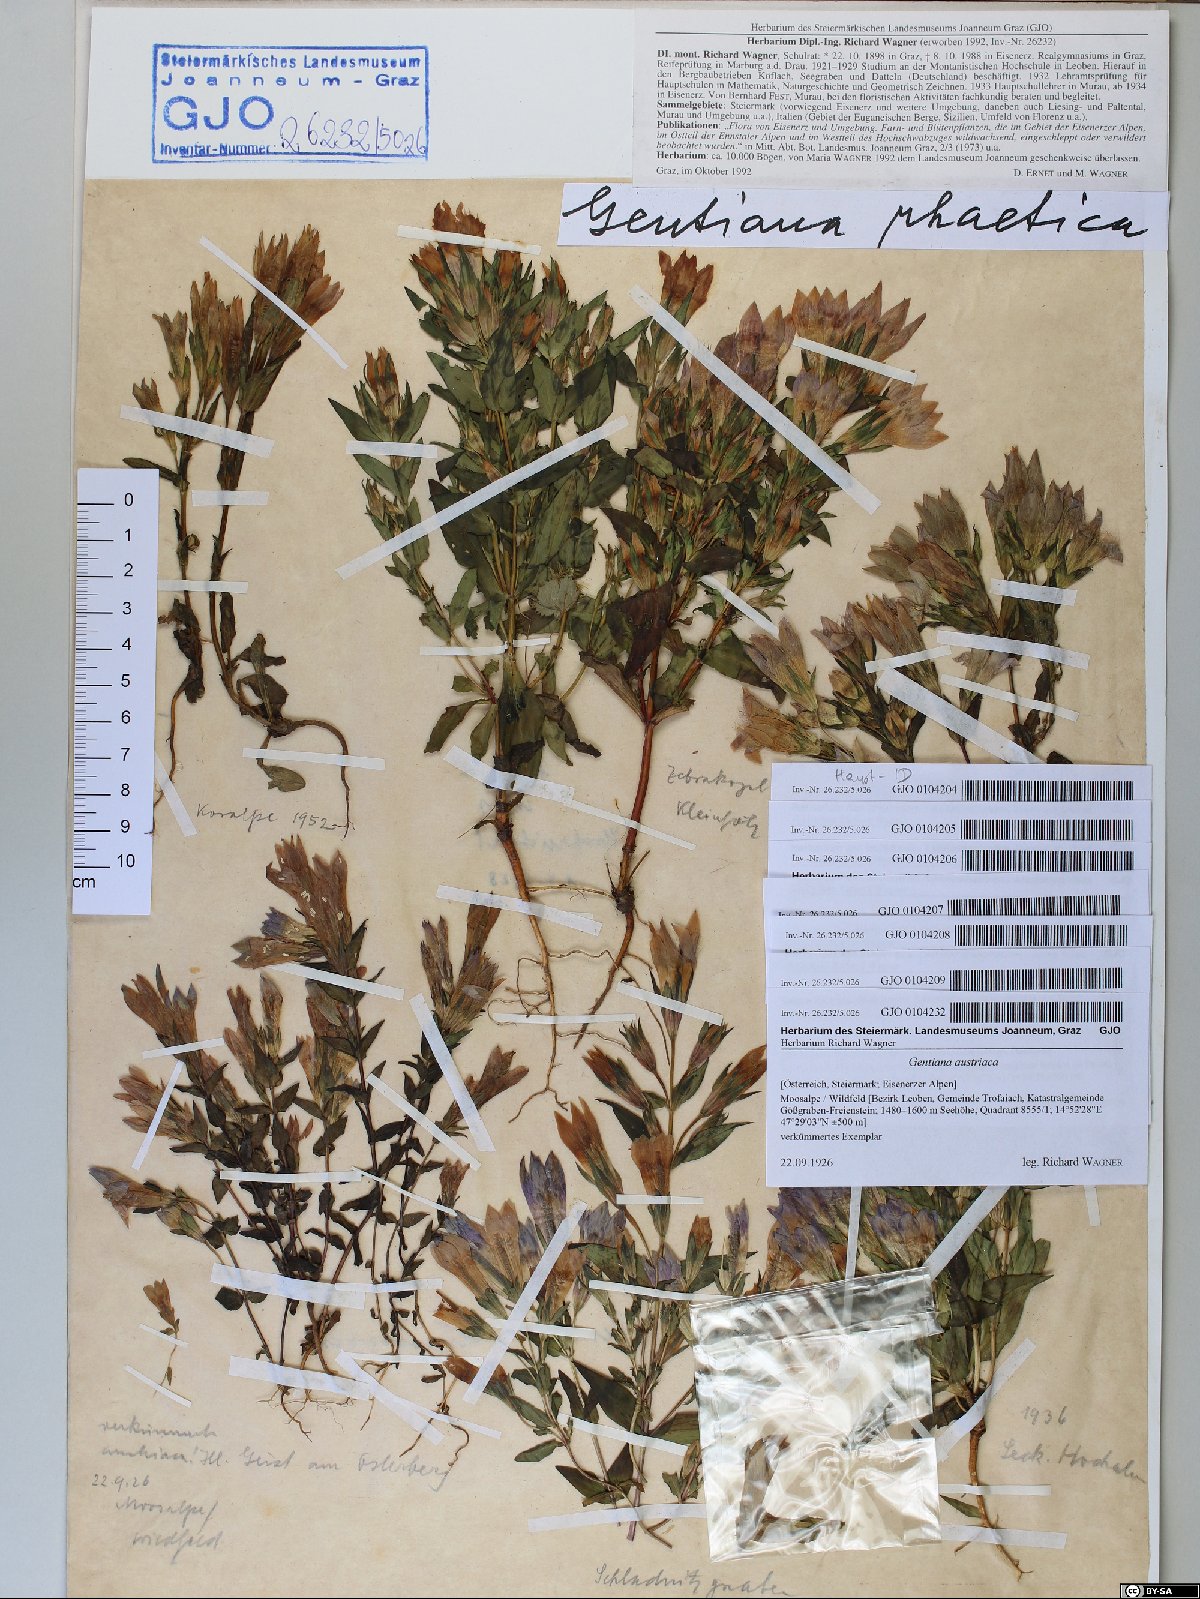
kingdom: Plantae
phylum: Tracheophyta
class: Magnoliopsida
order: Gentianales
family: Gentianaceae
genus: Gentianella
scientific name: Gentianella rhaetica
